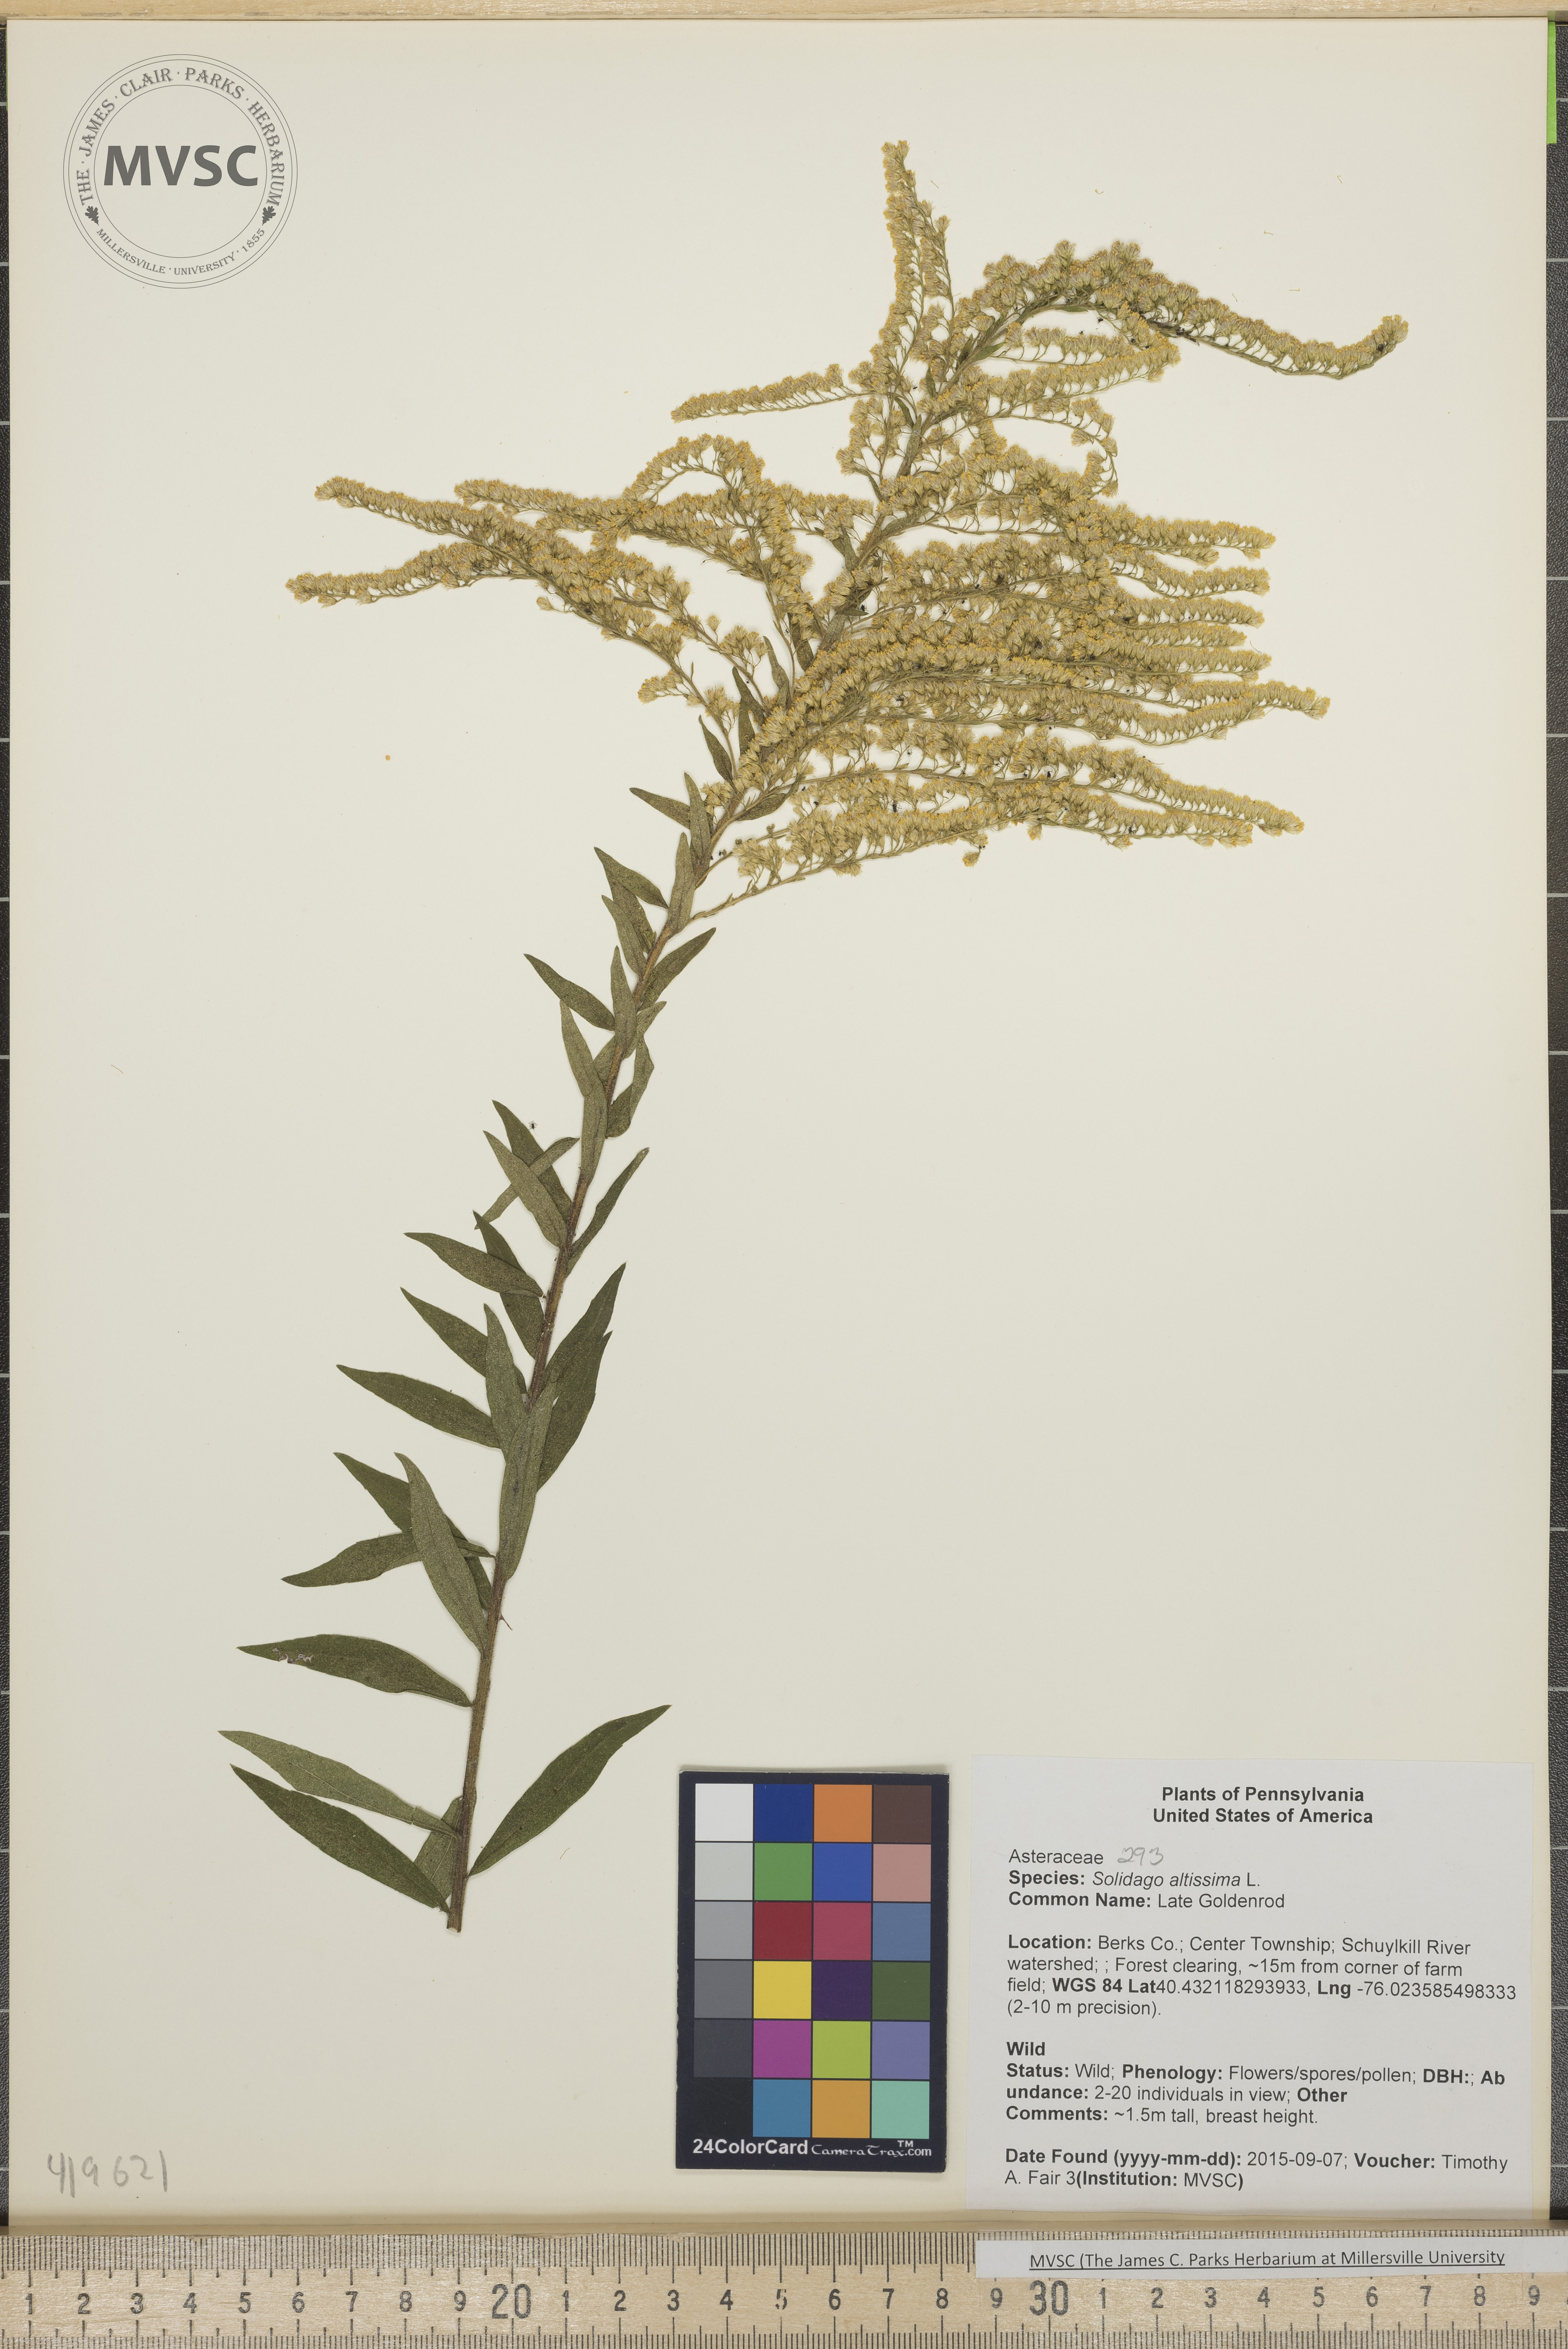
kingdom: Plantae
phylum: Tracheophyta
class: Magnoliopsida
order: Asterales
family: Asteraceae
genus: Solidago
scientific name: Solidago altissima
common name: Late Goldenrod
